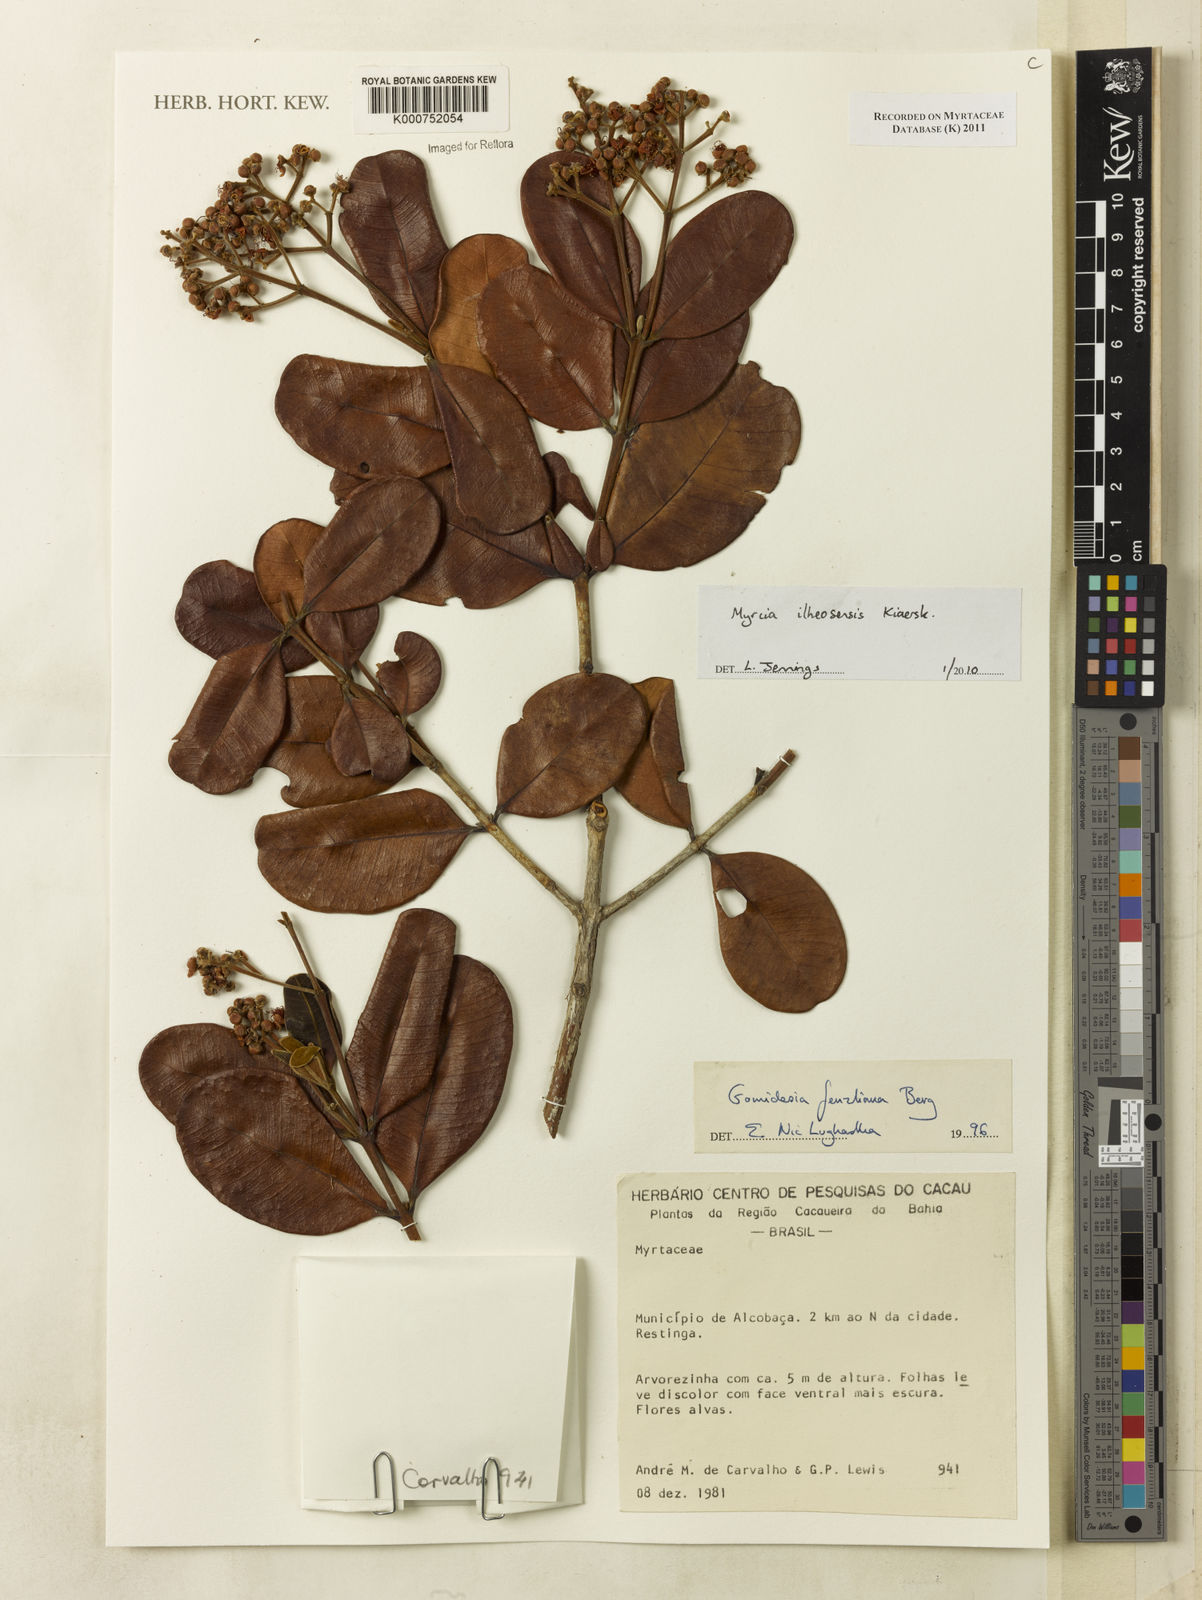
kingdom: Plantae
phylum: Tracheophyta
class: Magnoliopsida
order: Myrtales
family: Myrtaceae
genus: Myrcia
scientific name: Myrcia ilheosensis
